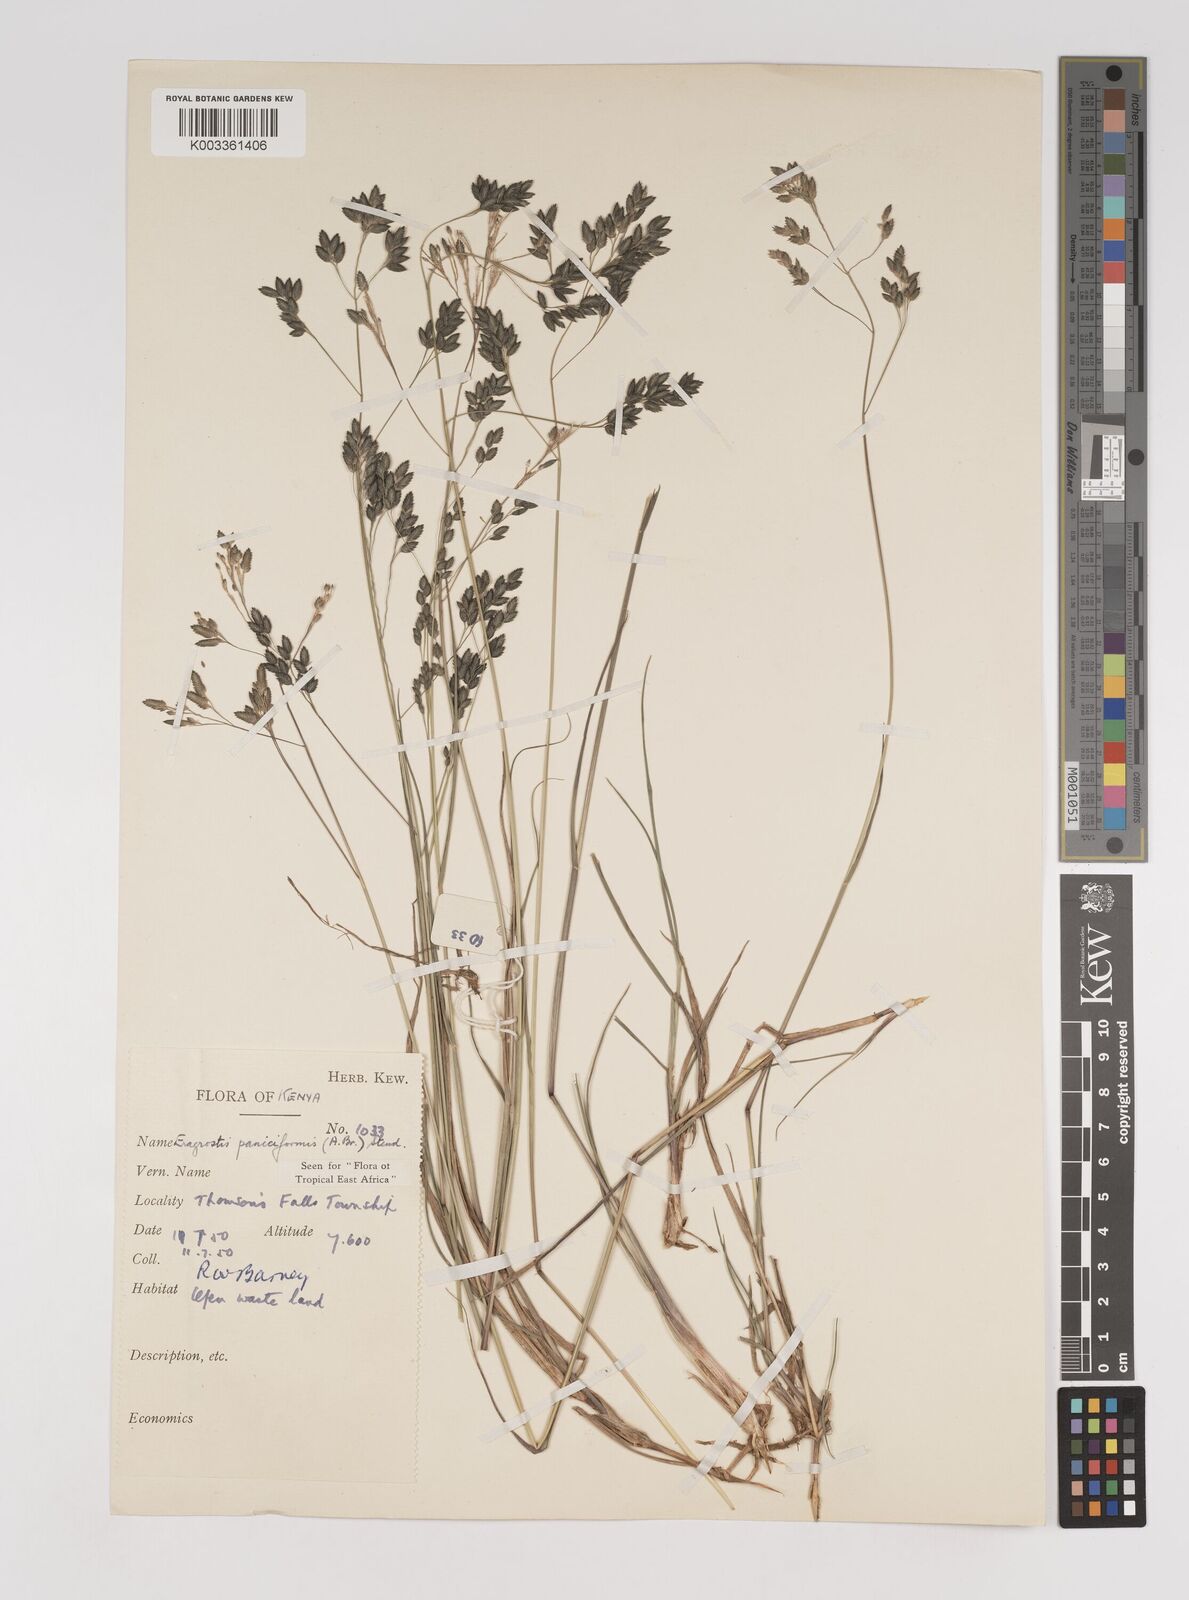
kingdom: Plantae
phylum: Tracheophyta
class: Liliopsida
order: Poales
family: Poaceae
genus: Eragrostis
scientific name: Eragrostis paniciformis
